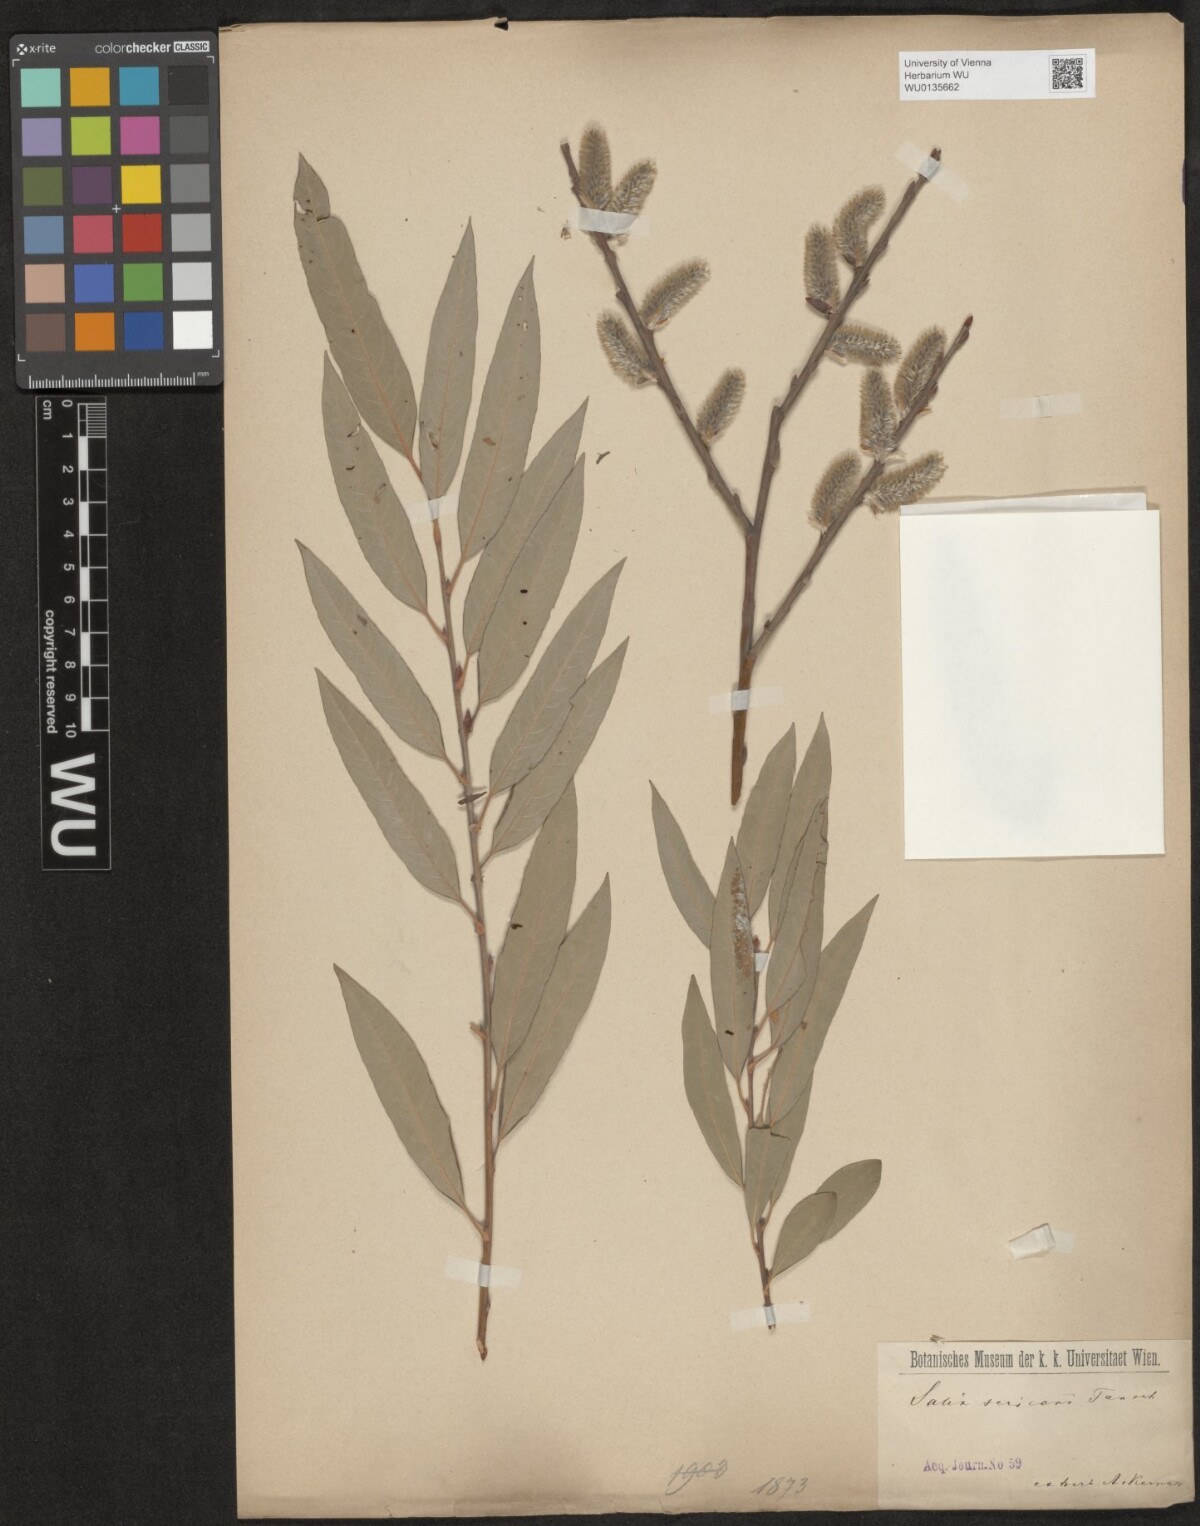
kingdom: Plantae
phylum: Tracheophyta
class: Magnoliopsida
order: Malpighiales
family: Salicaceae
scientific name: Salicaceae
